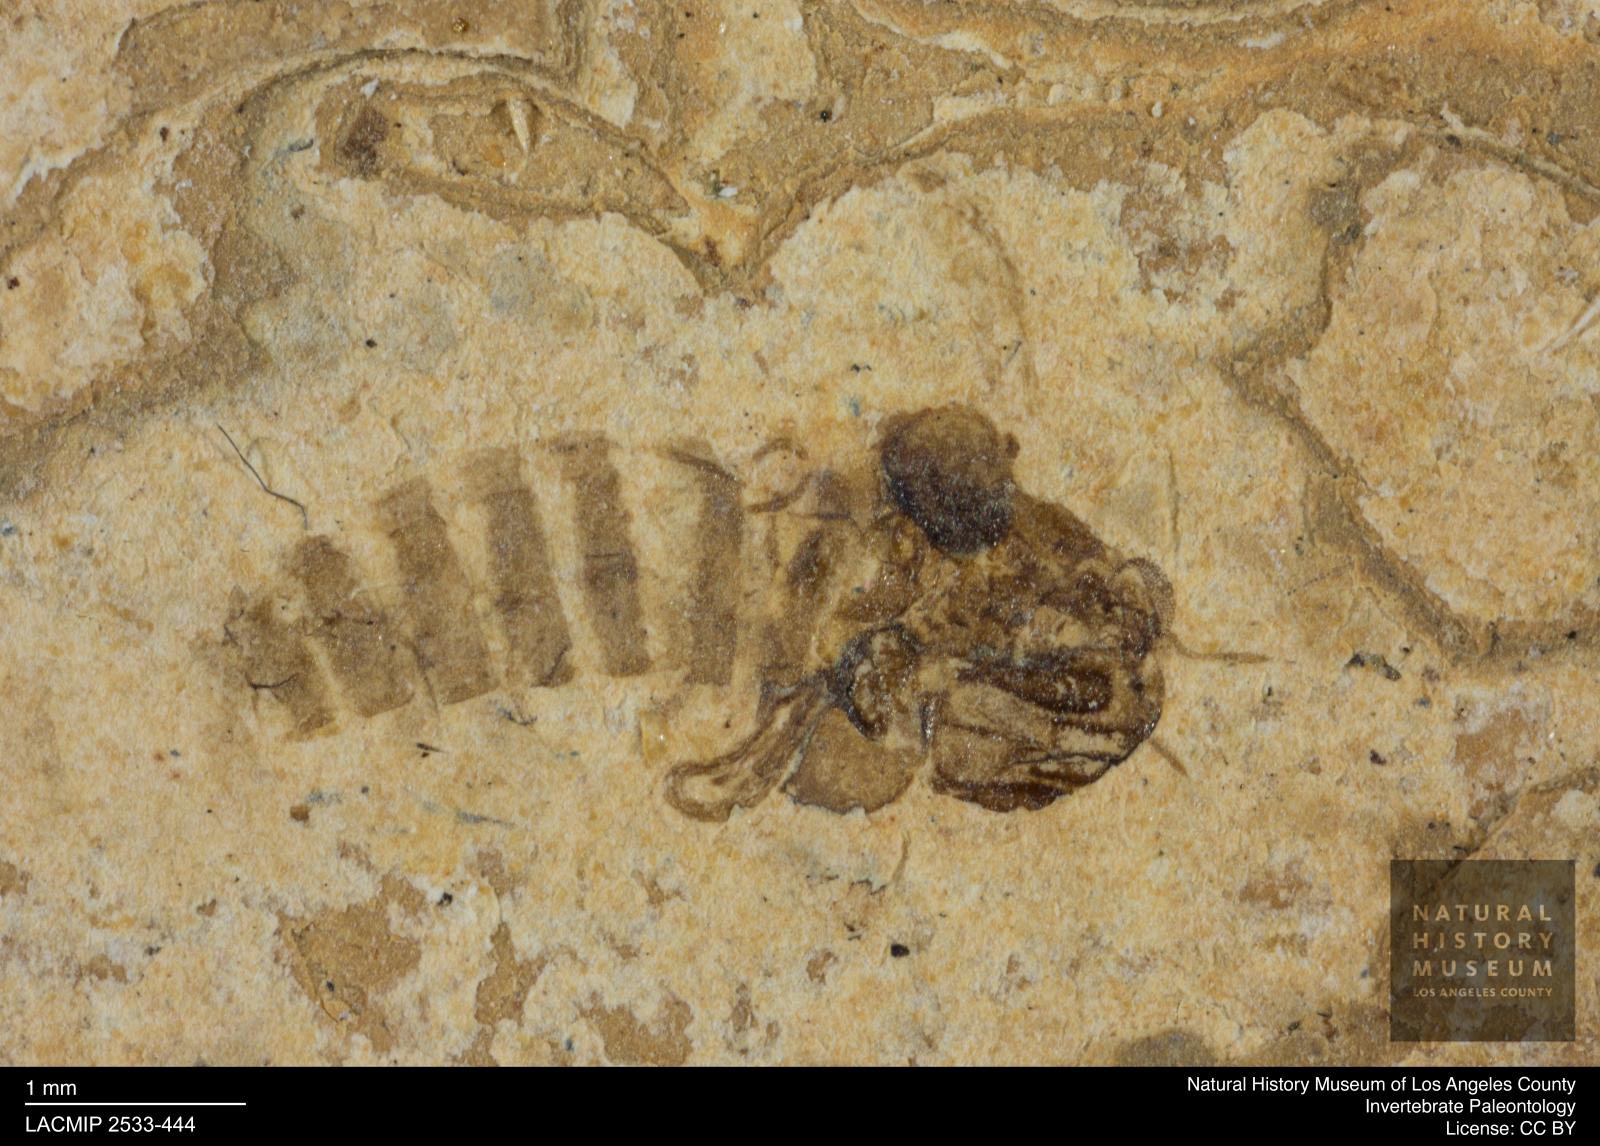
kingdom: Animalia
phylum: Arthropoda
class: Insecta
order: Diptera
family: Chironomidae
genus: Tanypus
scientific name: Tanypus thienemanni
